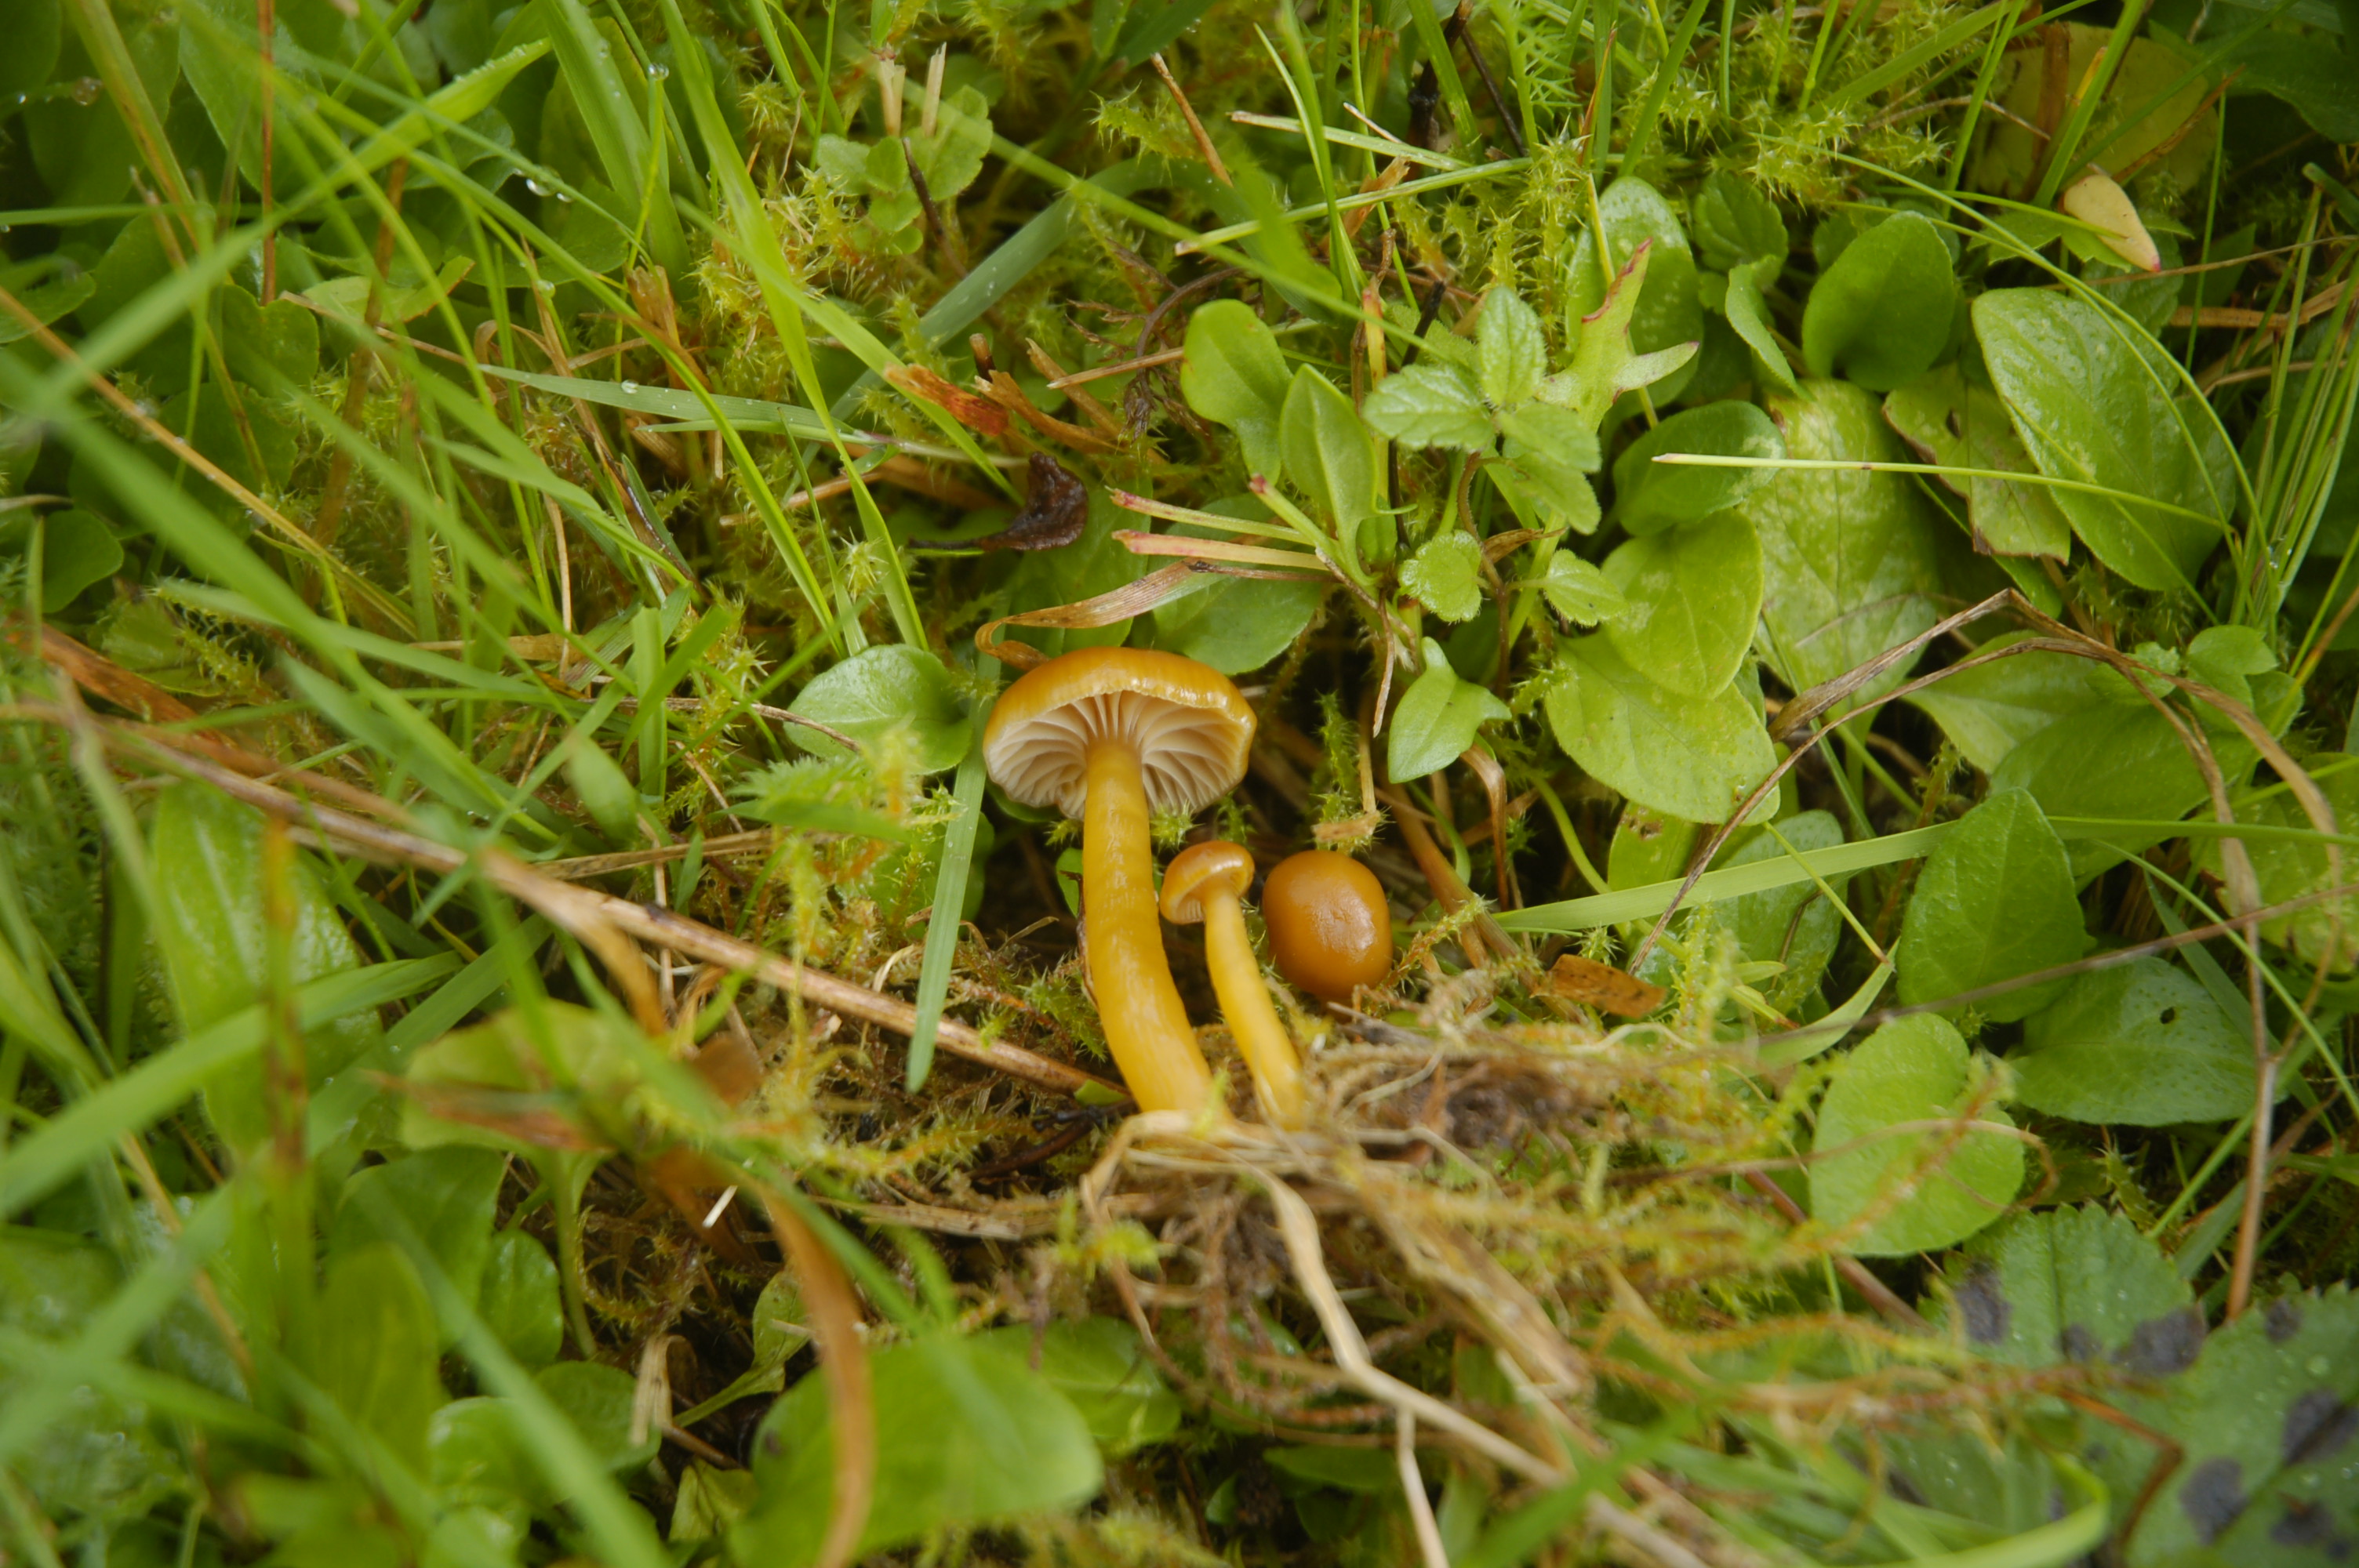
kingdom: Fungi
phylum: Basidiomycota
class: Agaricomycetes
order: Agaricales
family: Hygrophoraceae
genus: Gliophorus
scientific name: Gliophorus laetus
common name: Heath waxcap
